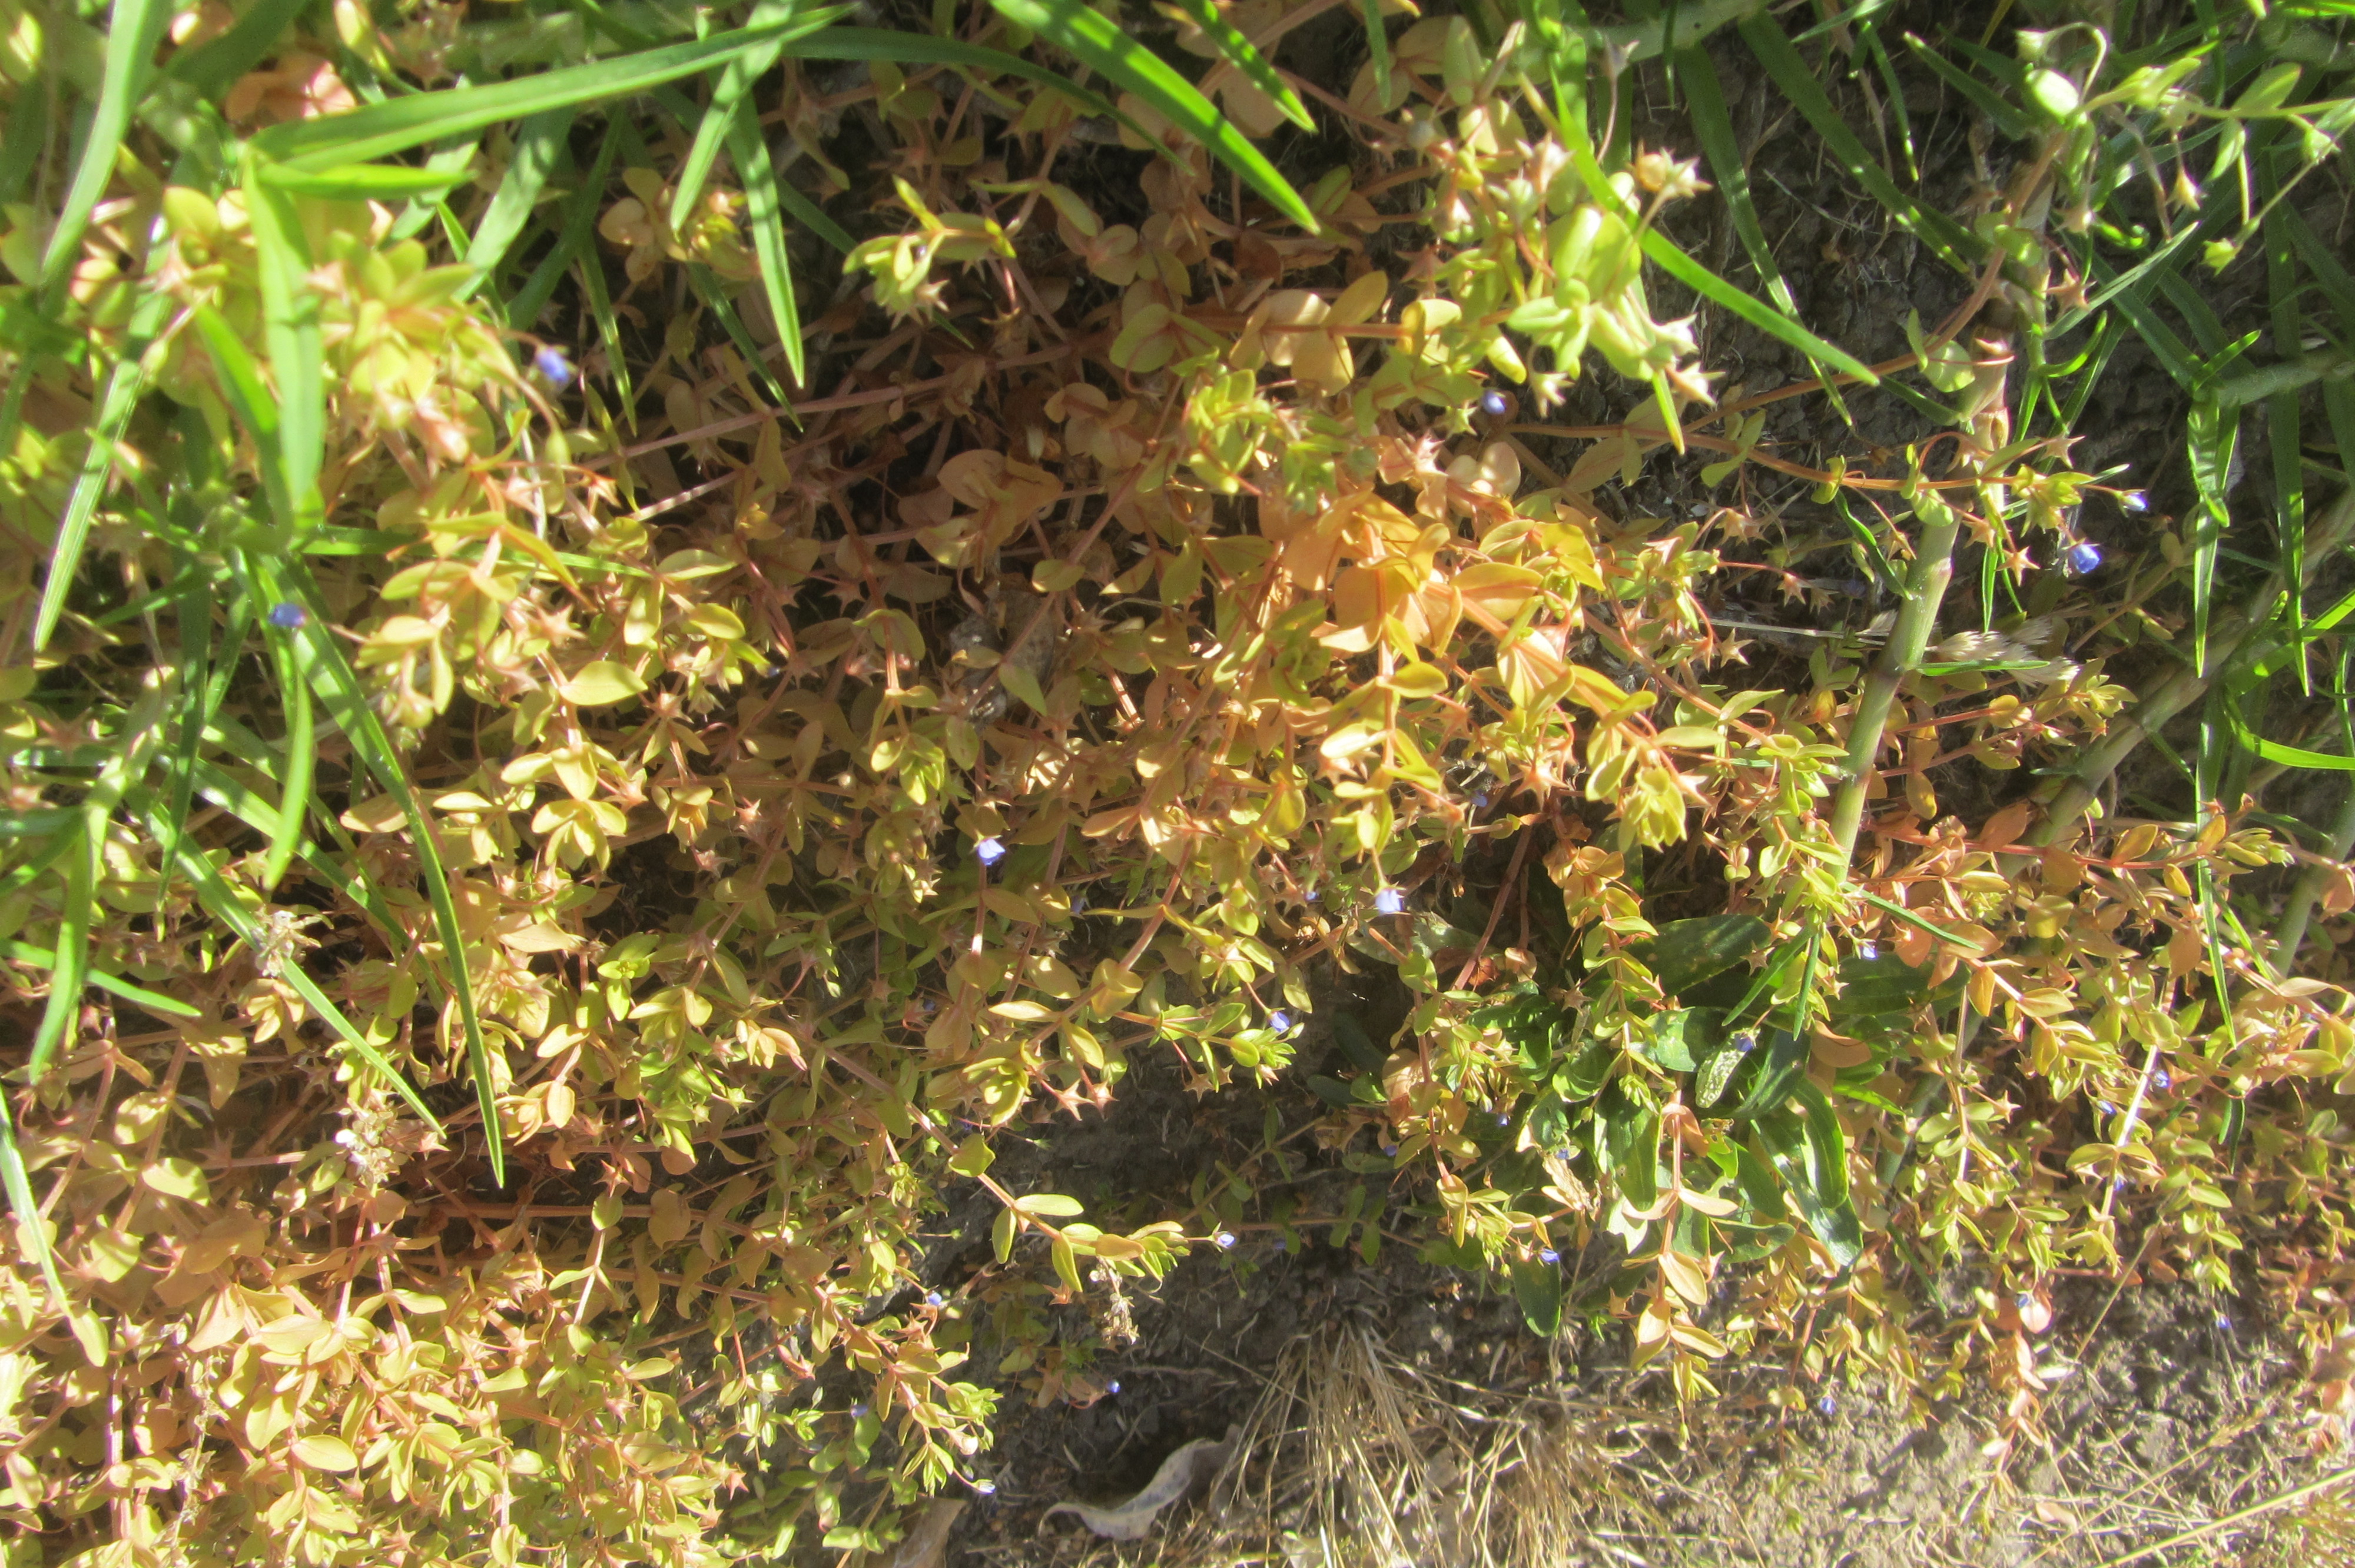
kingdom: Plantae
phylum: Tracheophyta
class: Magnoliopsida
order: Ericales
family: Primulaceae
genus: Lysimachia
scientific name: Lysimachia talaverae
